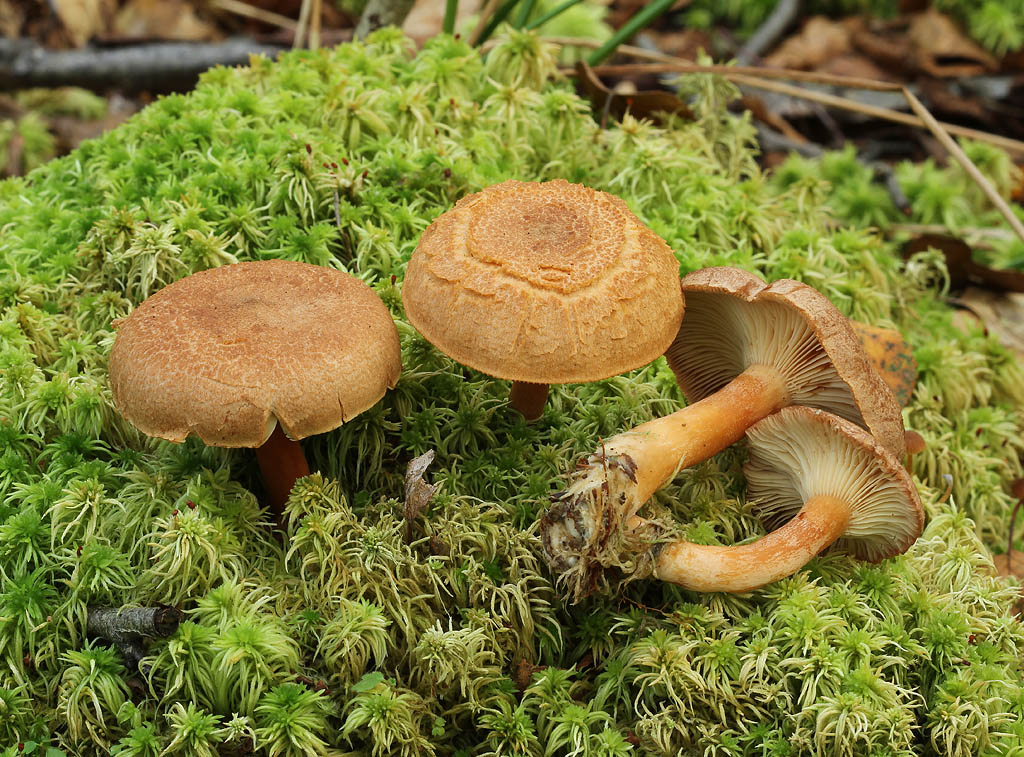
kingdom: Fungi
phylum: Basidiomycota
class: Agaricomycetes
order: Russulales
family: Russulaceae
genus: Lactarius
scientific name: Lactarius helvus
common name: mose-mælkehat
